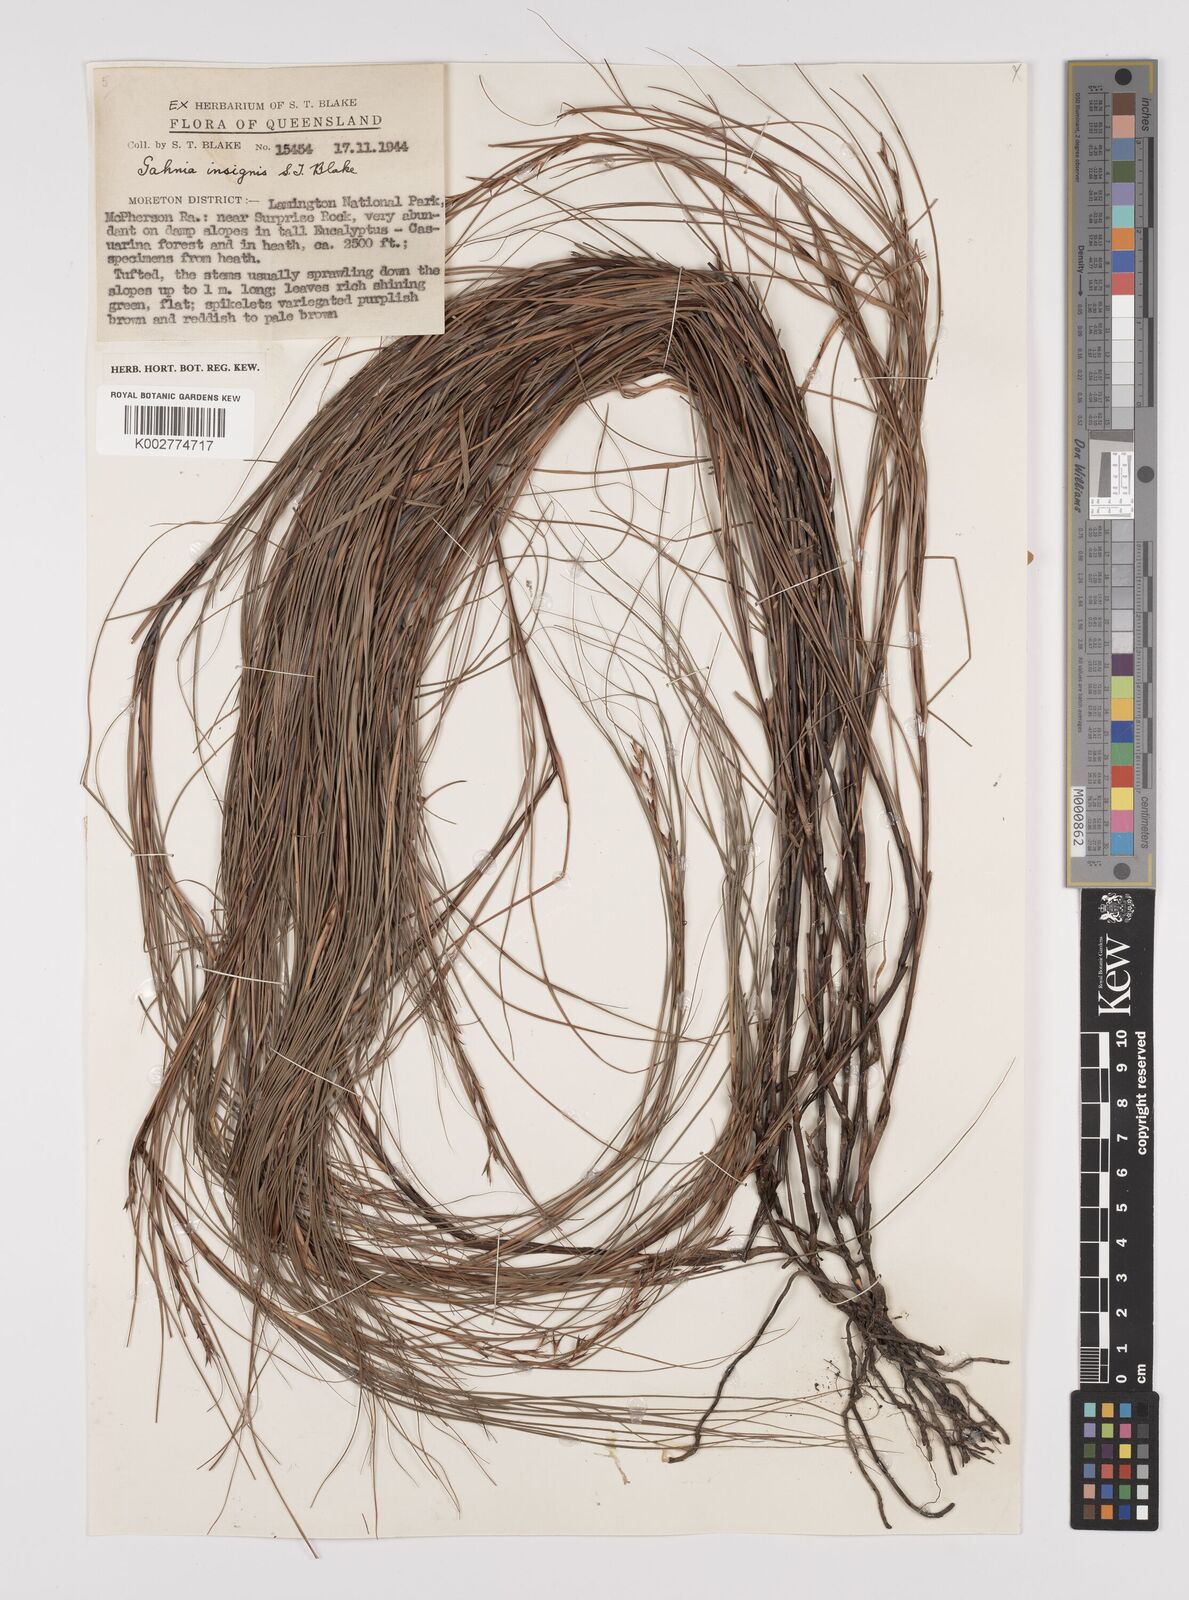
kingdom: Plantae
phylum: Tracheophyta
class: Liliopsida
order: Poales
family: Cyperaceae
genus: Gahnia
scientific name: Gahnia insignis
